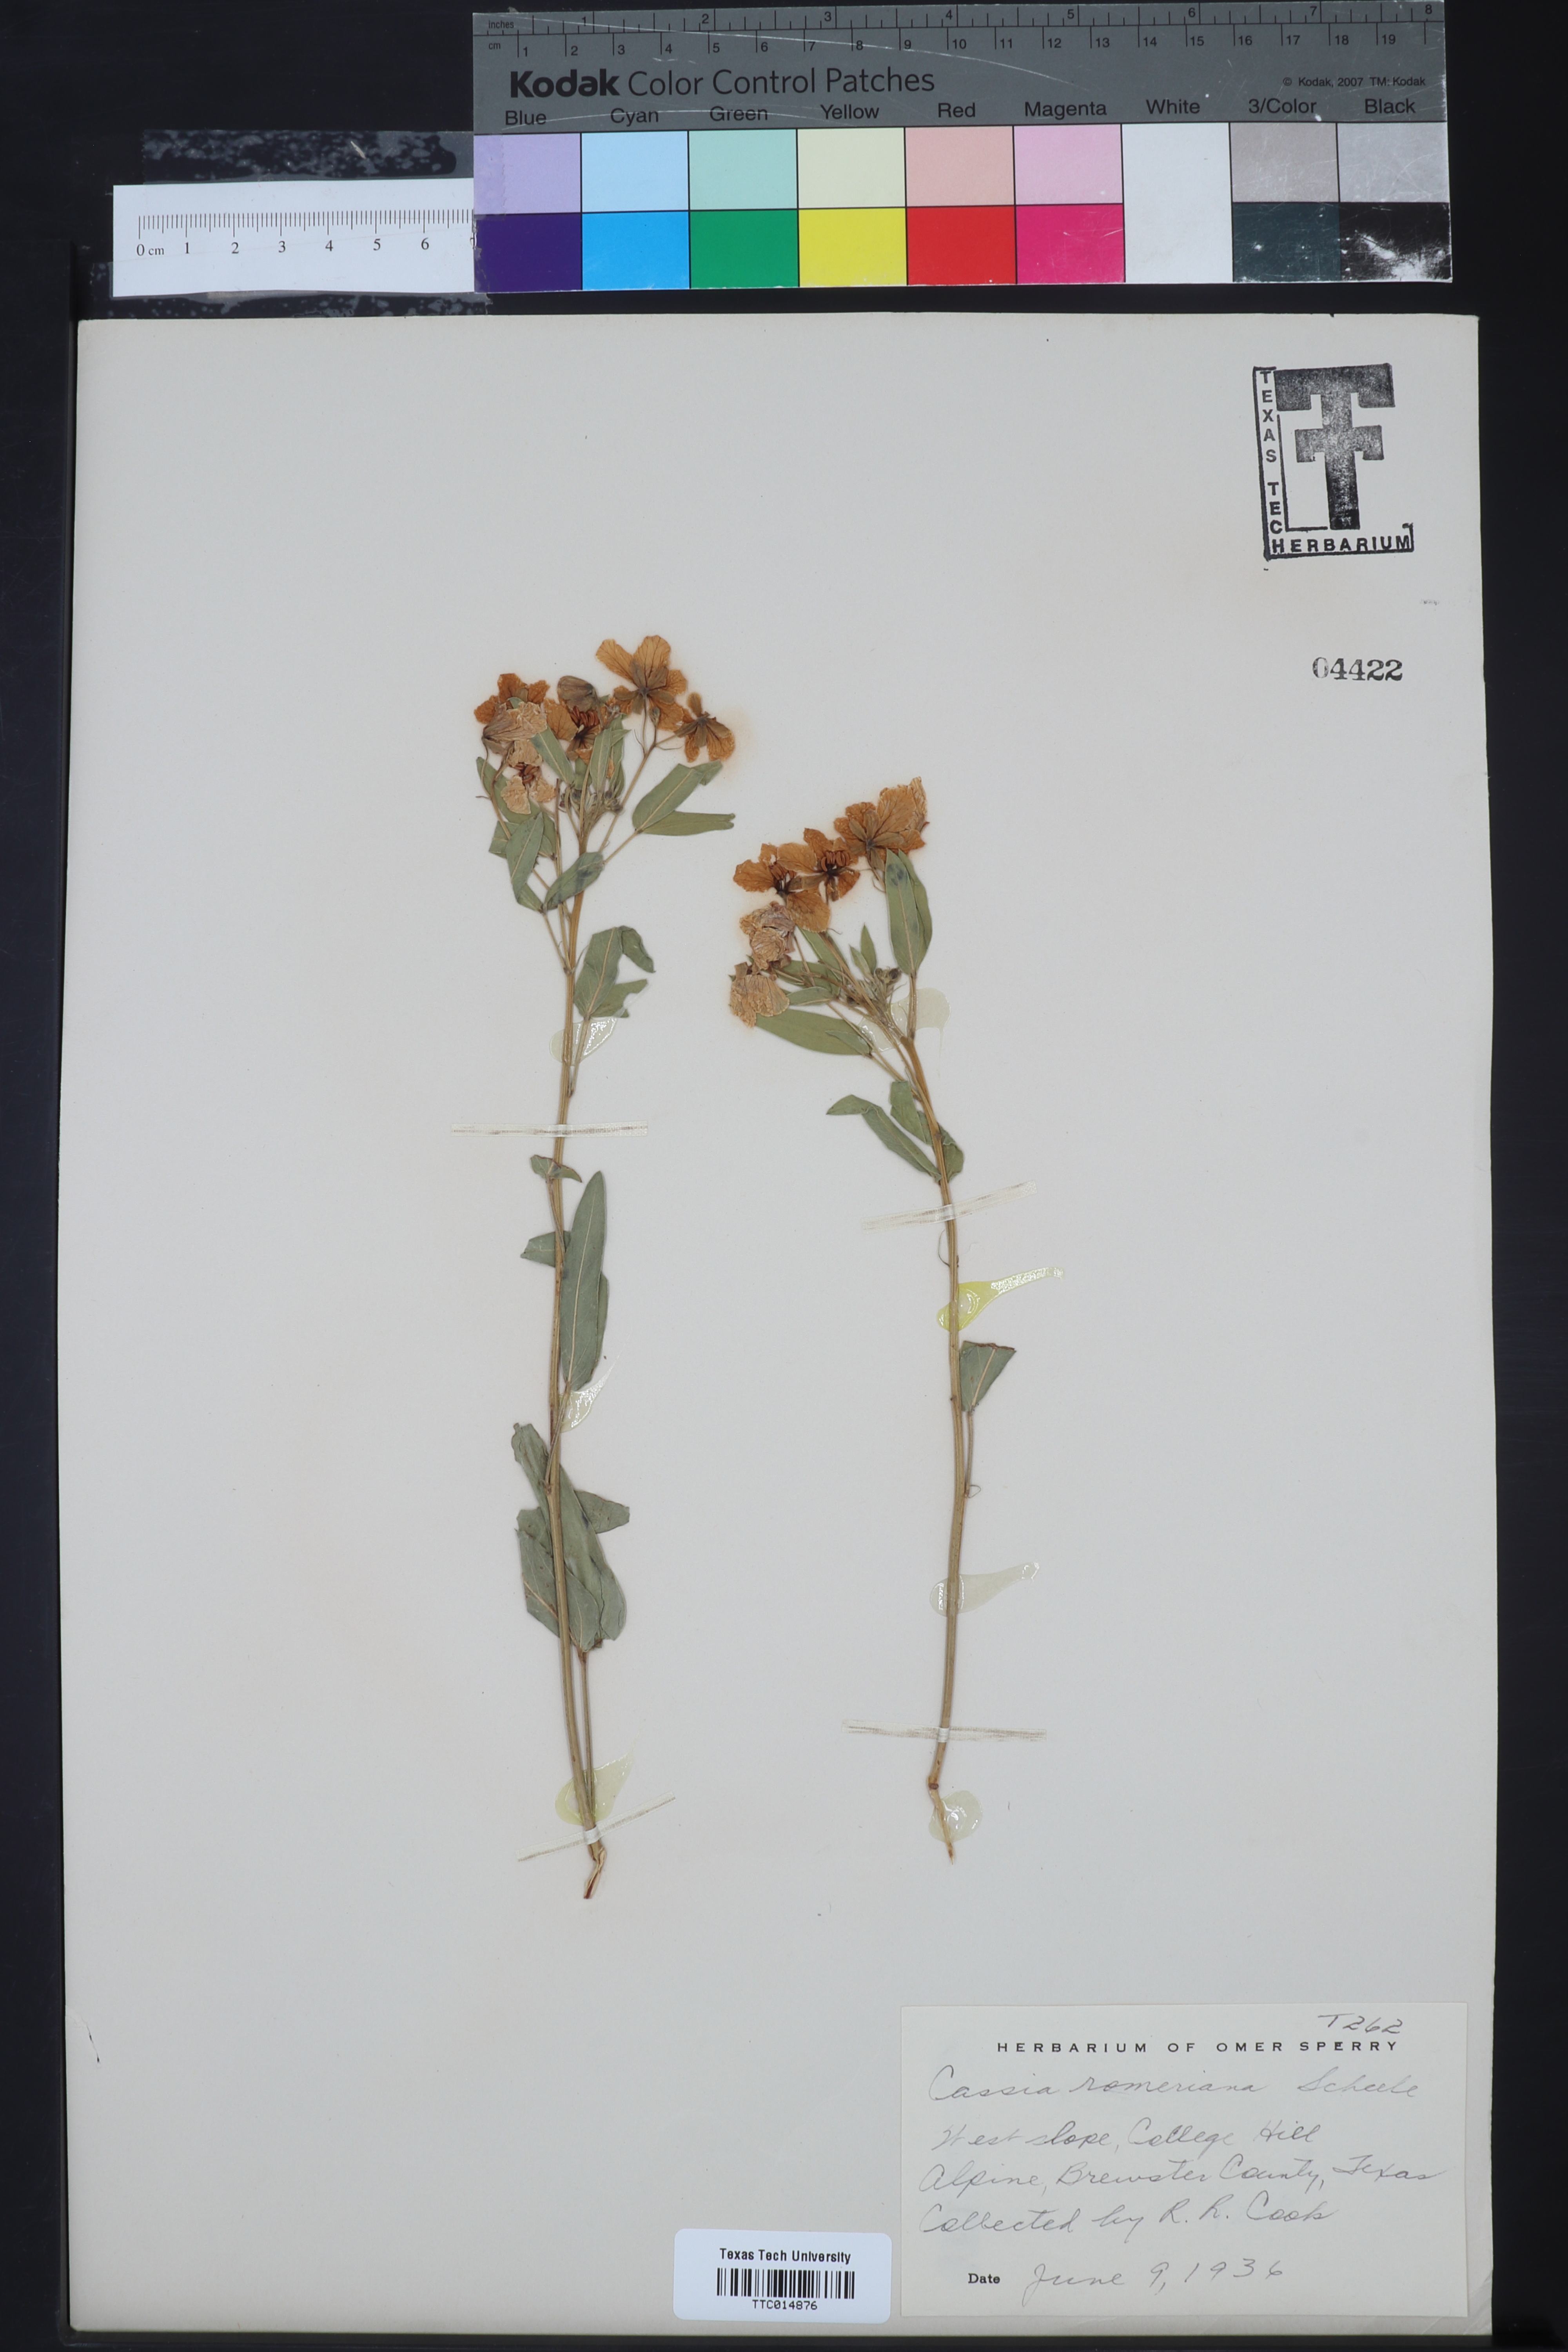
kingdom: Plantae
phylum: Tracheophyta
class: Magnoliopsida
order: Fabales
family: Fabaceae
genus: Senna
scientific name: Senna roemeriana
